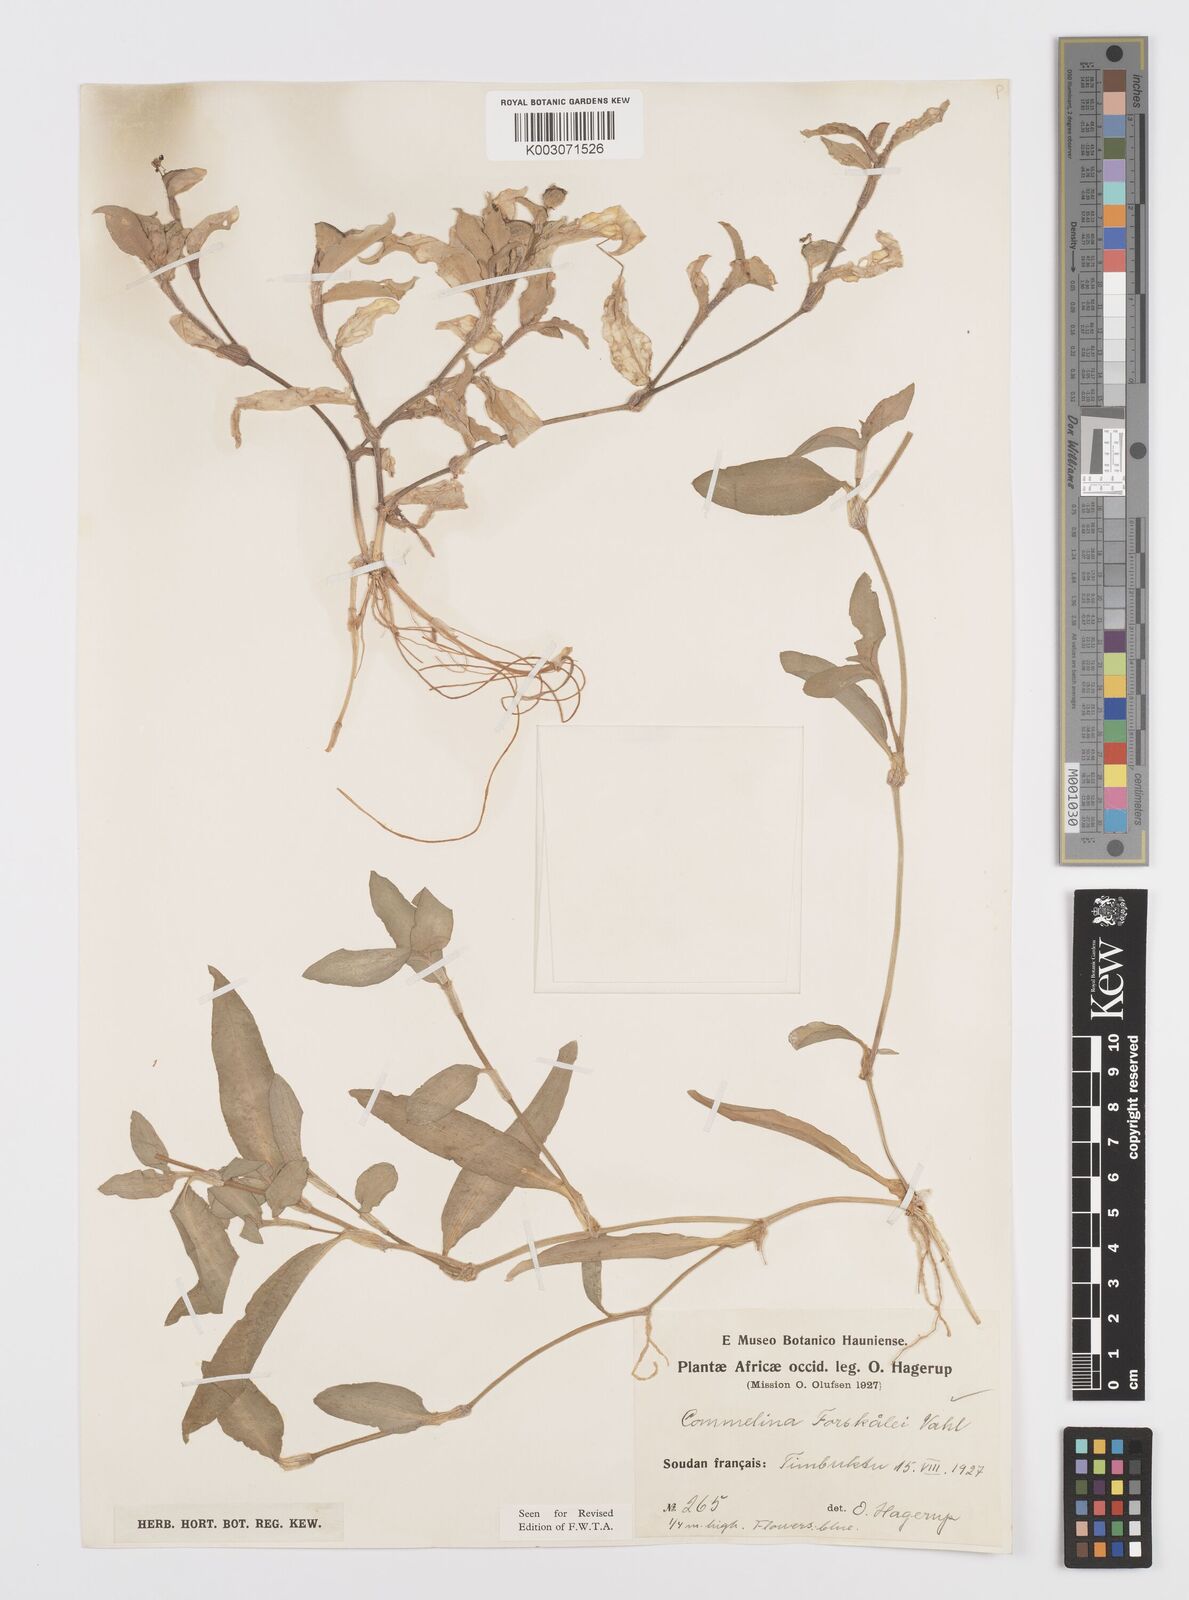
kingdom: Plantae
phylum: Tracheophyta
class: Liliopsida
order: Commelinales
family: Commelinaceae
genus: Commelina
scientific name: Commelina forskaolii
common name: Rat's ear
